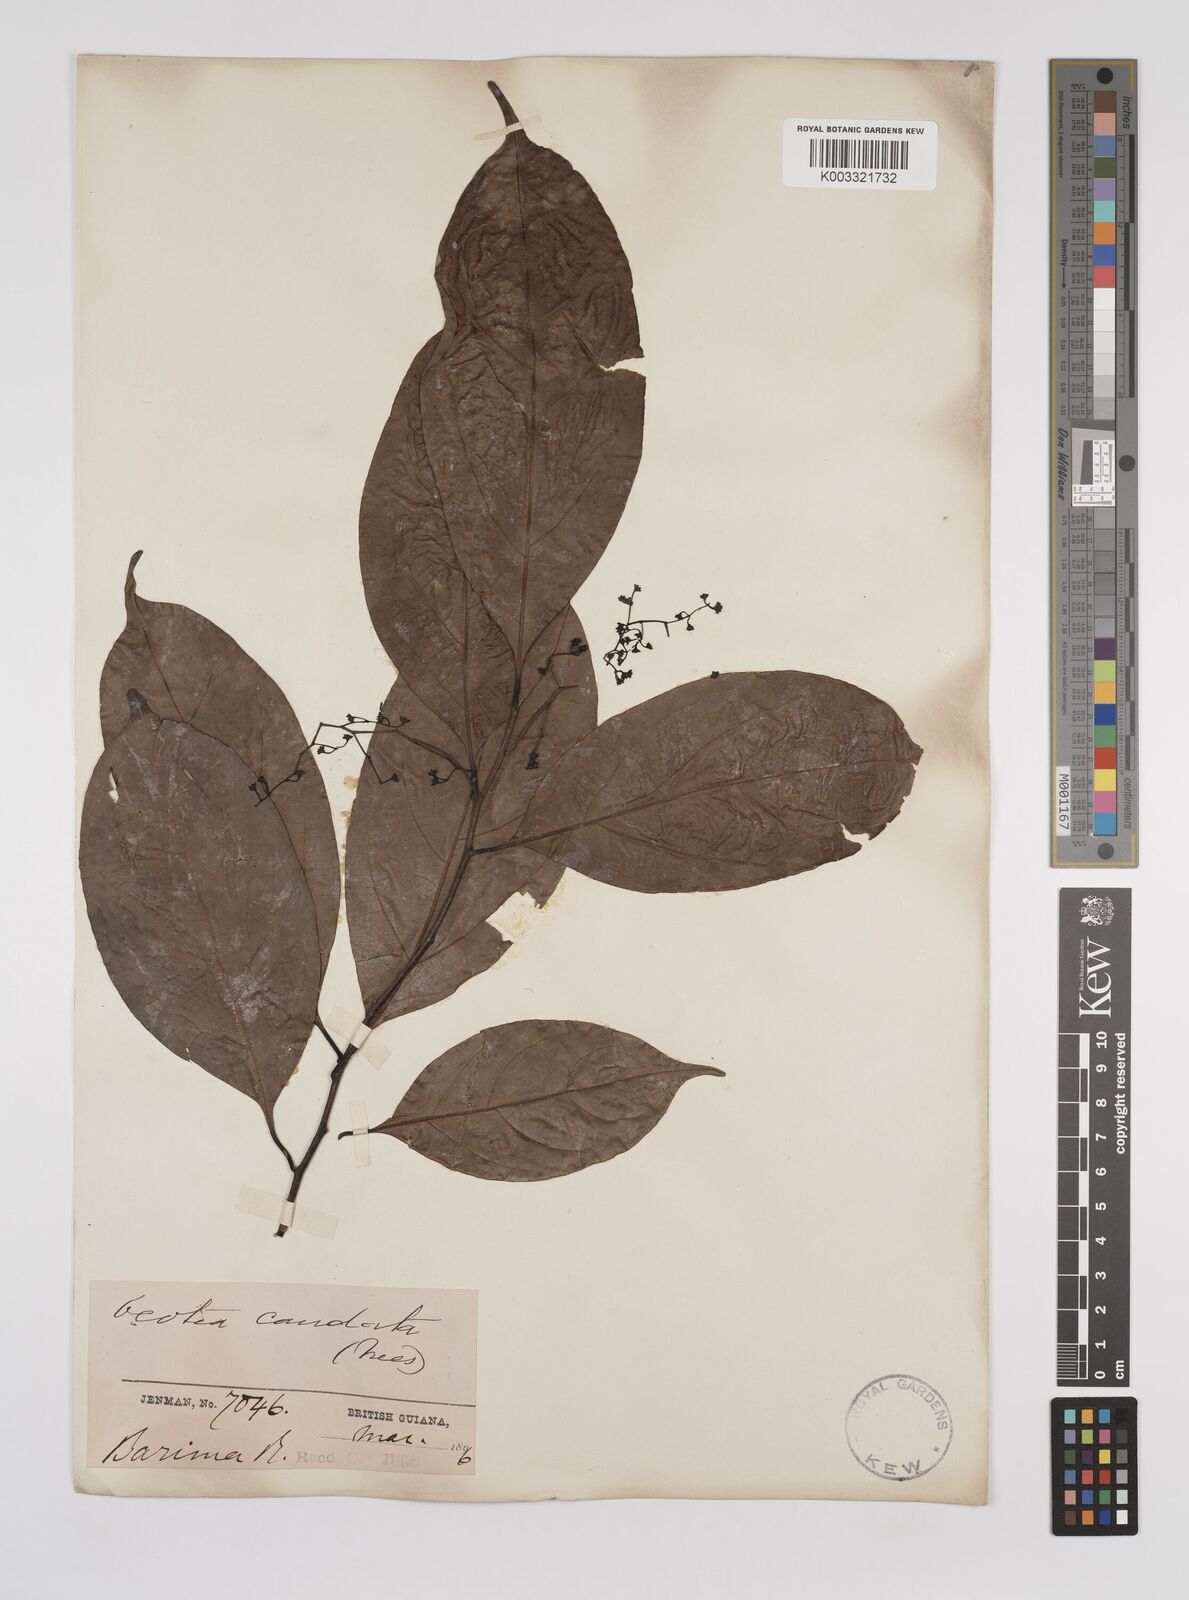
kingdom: Plantae
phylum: Tracheophyta
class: Magnoliopsida
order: Laurales
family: Lauraceae
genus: Ocotea
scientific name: Ocotea leptobotra
